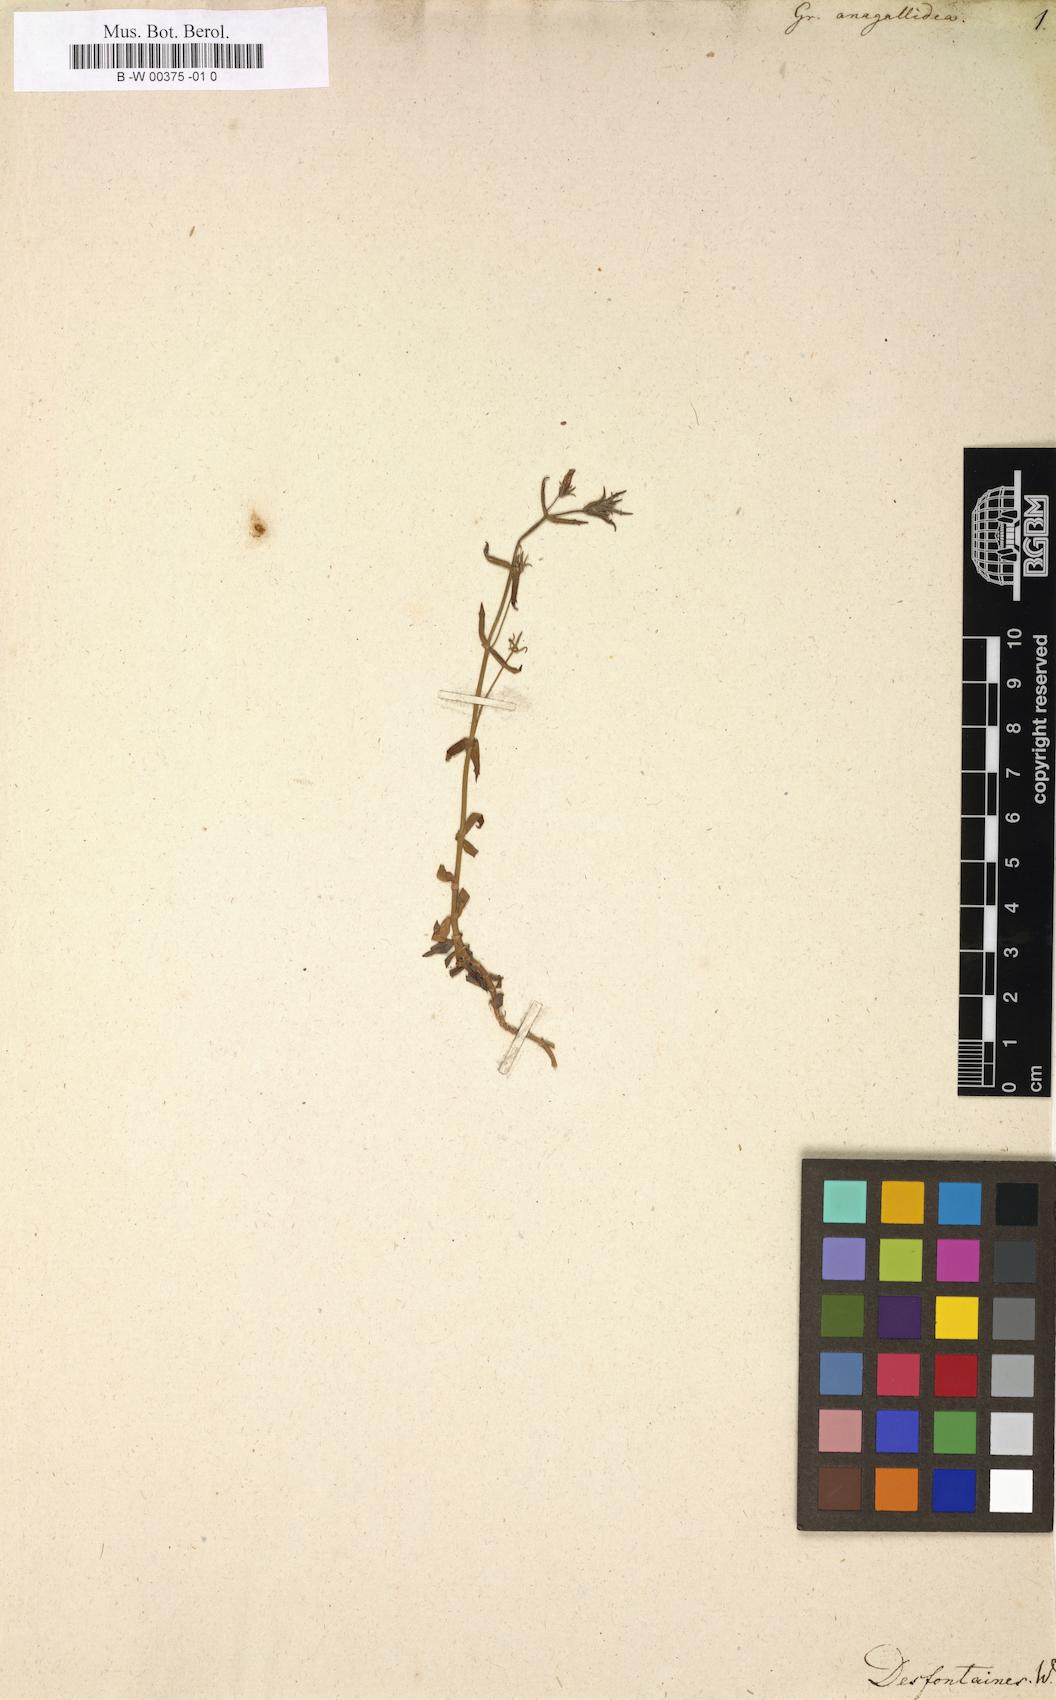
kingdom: Plantae
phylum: Tracheophyta
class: Magnoliopsida
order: Lamiales
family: Linderniaceae
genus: Lindernia
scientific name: Lindernia dubia
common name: Annual false pimpernel
